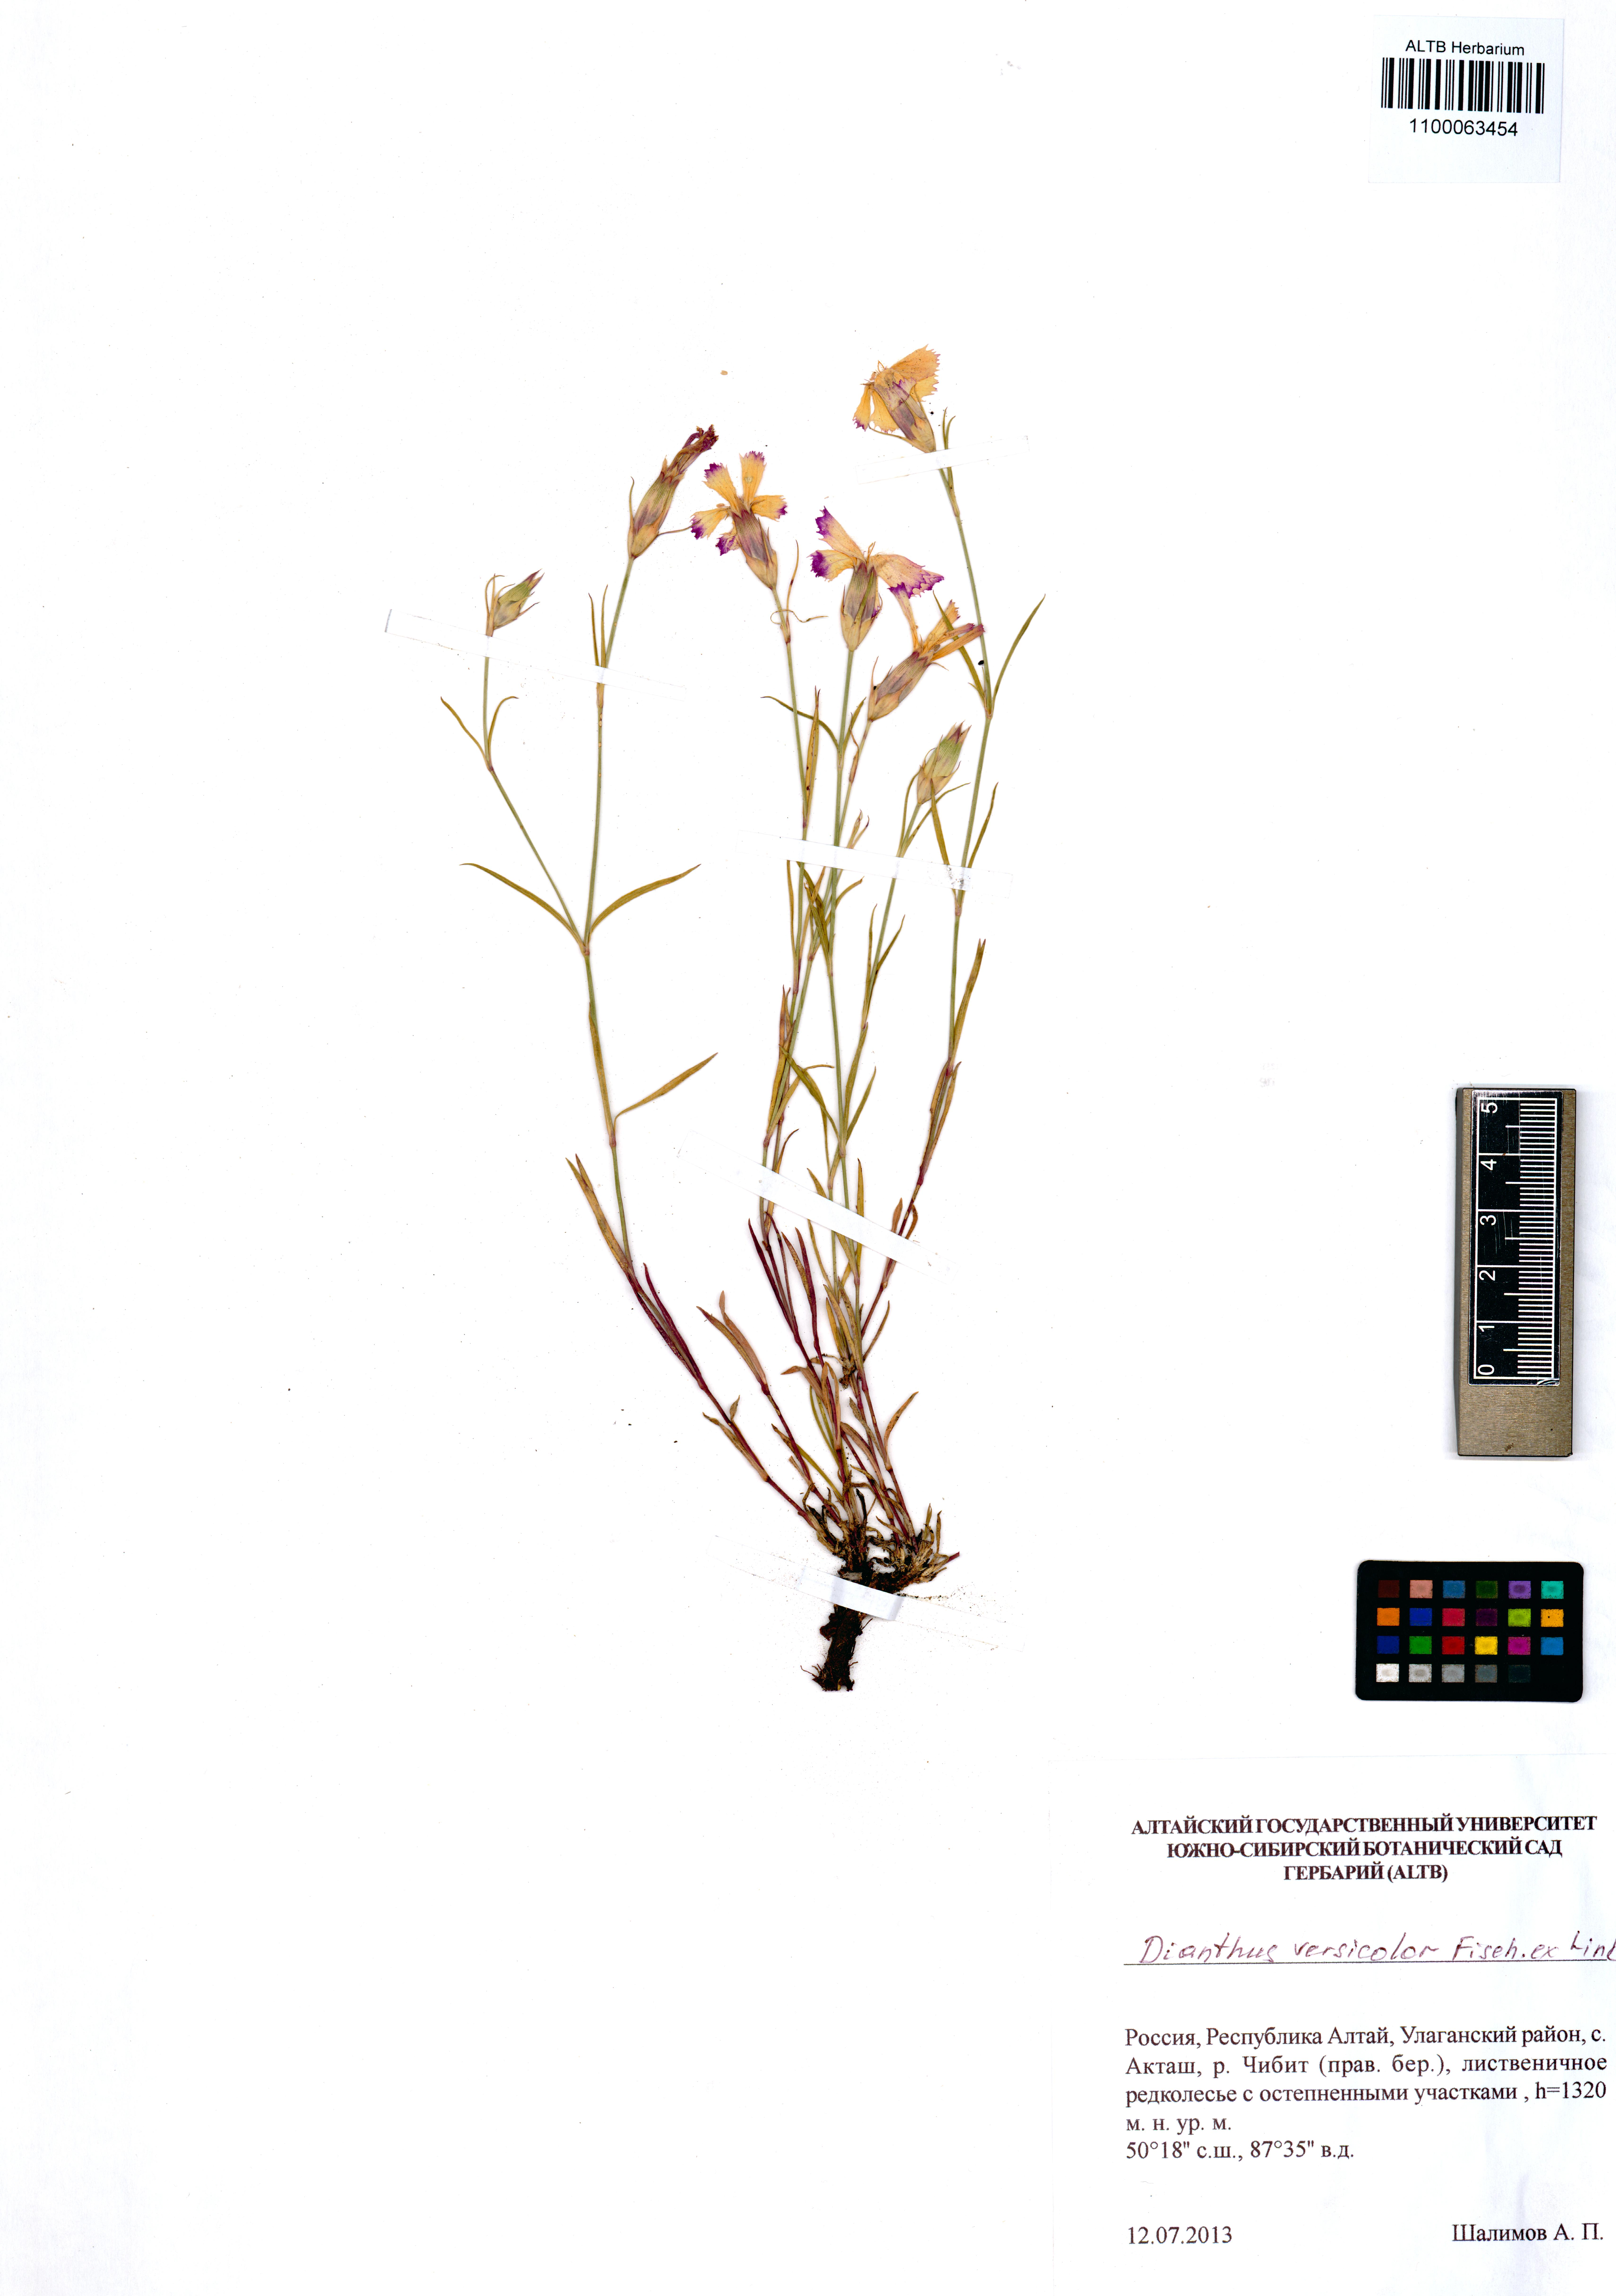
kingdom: Plantae
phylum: Tracheophyta
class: Magnoliopsida
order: Caryophyllales
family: Caryophyllaceae
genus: Dianthus
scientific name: Dianthus chinensis
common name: Rainbow pink
